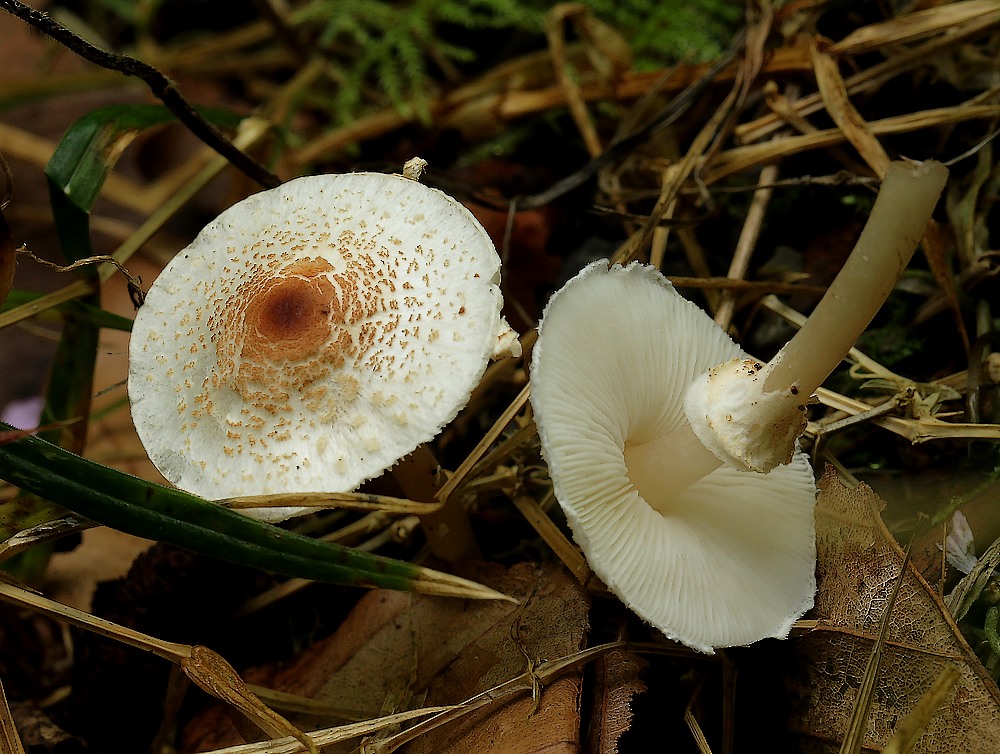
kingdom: Fungi
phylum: Basidiomycota
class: Agaricomycetes
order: Agaricales
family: Agaricaceae
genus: Lepiota
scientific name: Lepiota cristata
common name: stinkende parasolhat
